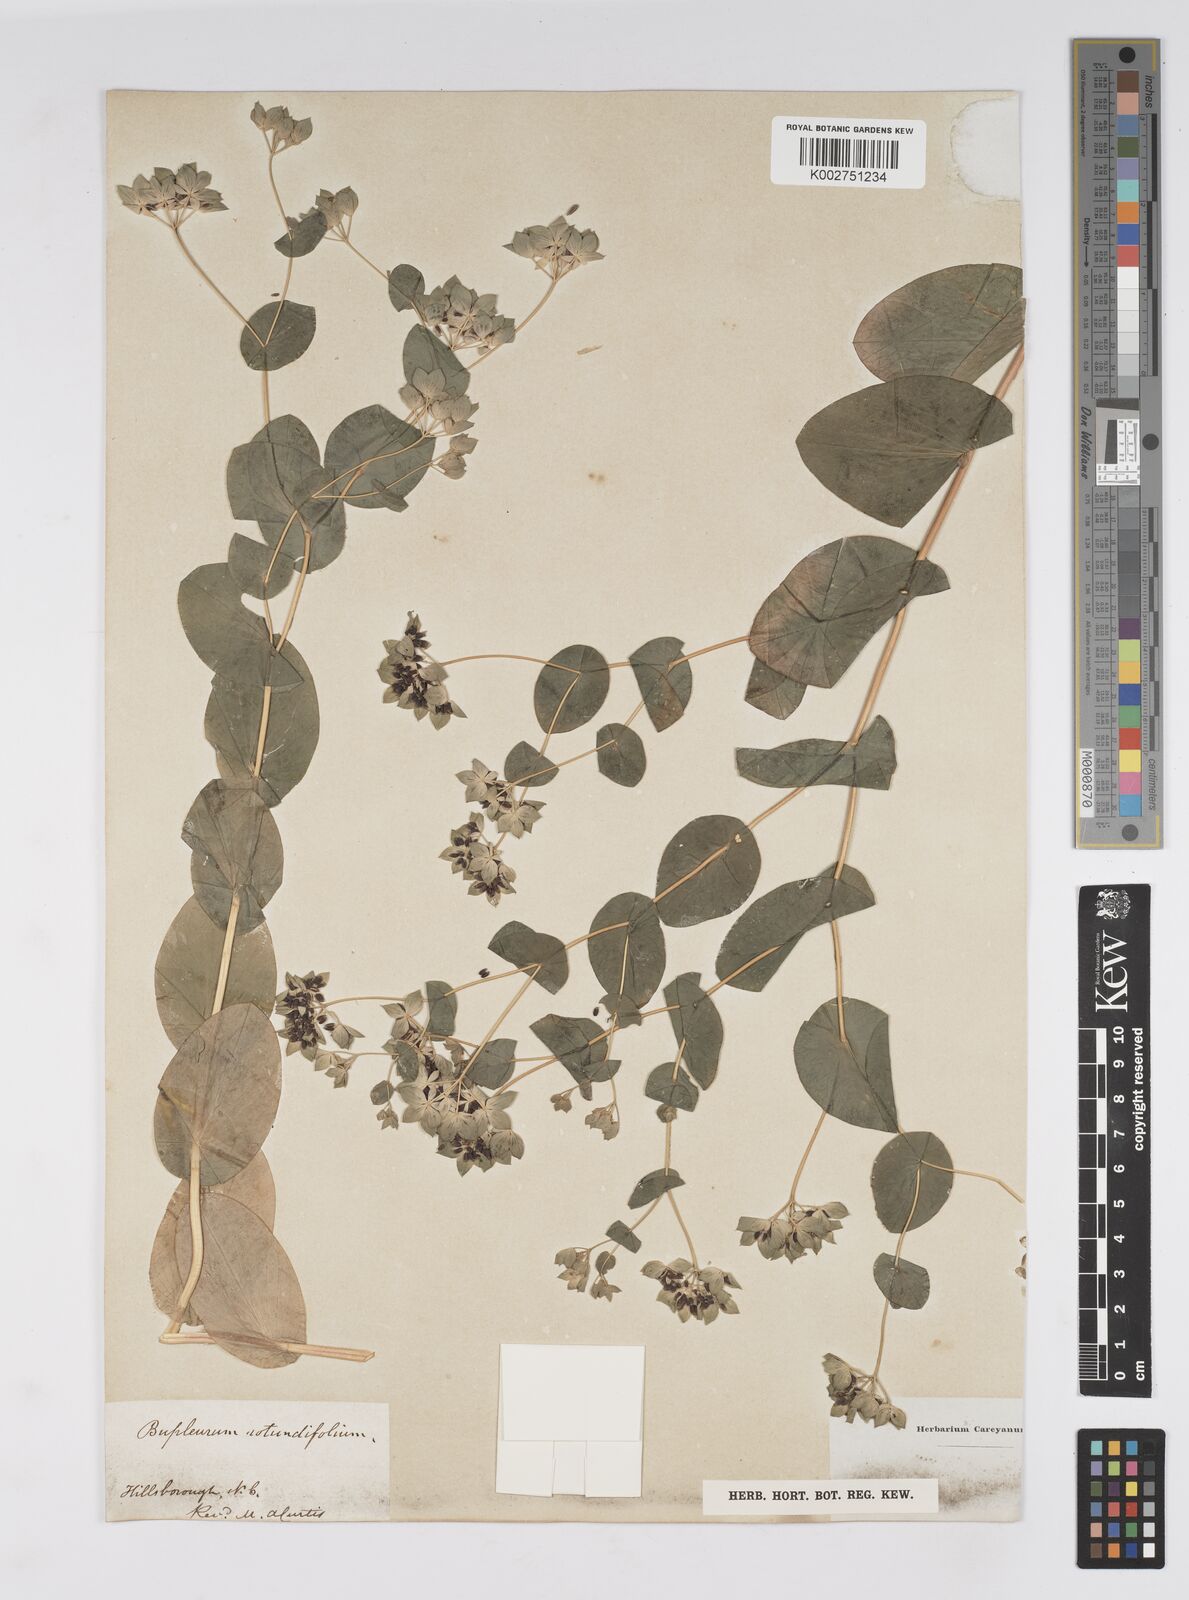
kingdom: Plantae
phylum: Tracheophyta
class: Magnoliopsida
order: Apiales
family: Apiaceae
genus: Bupleurum
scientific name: Bupleurum rotundifolium
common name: Thorow-wax
